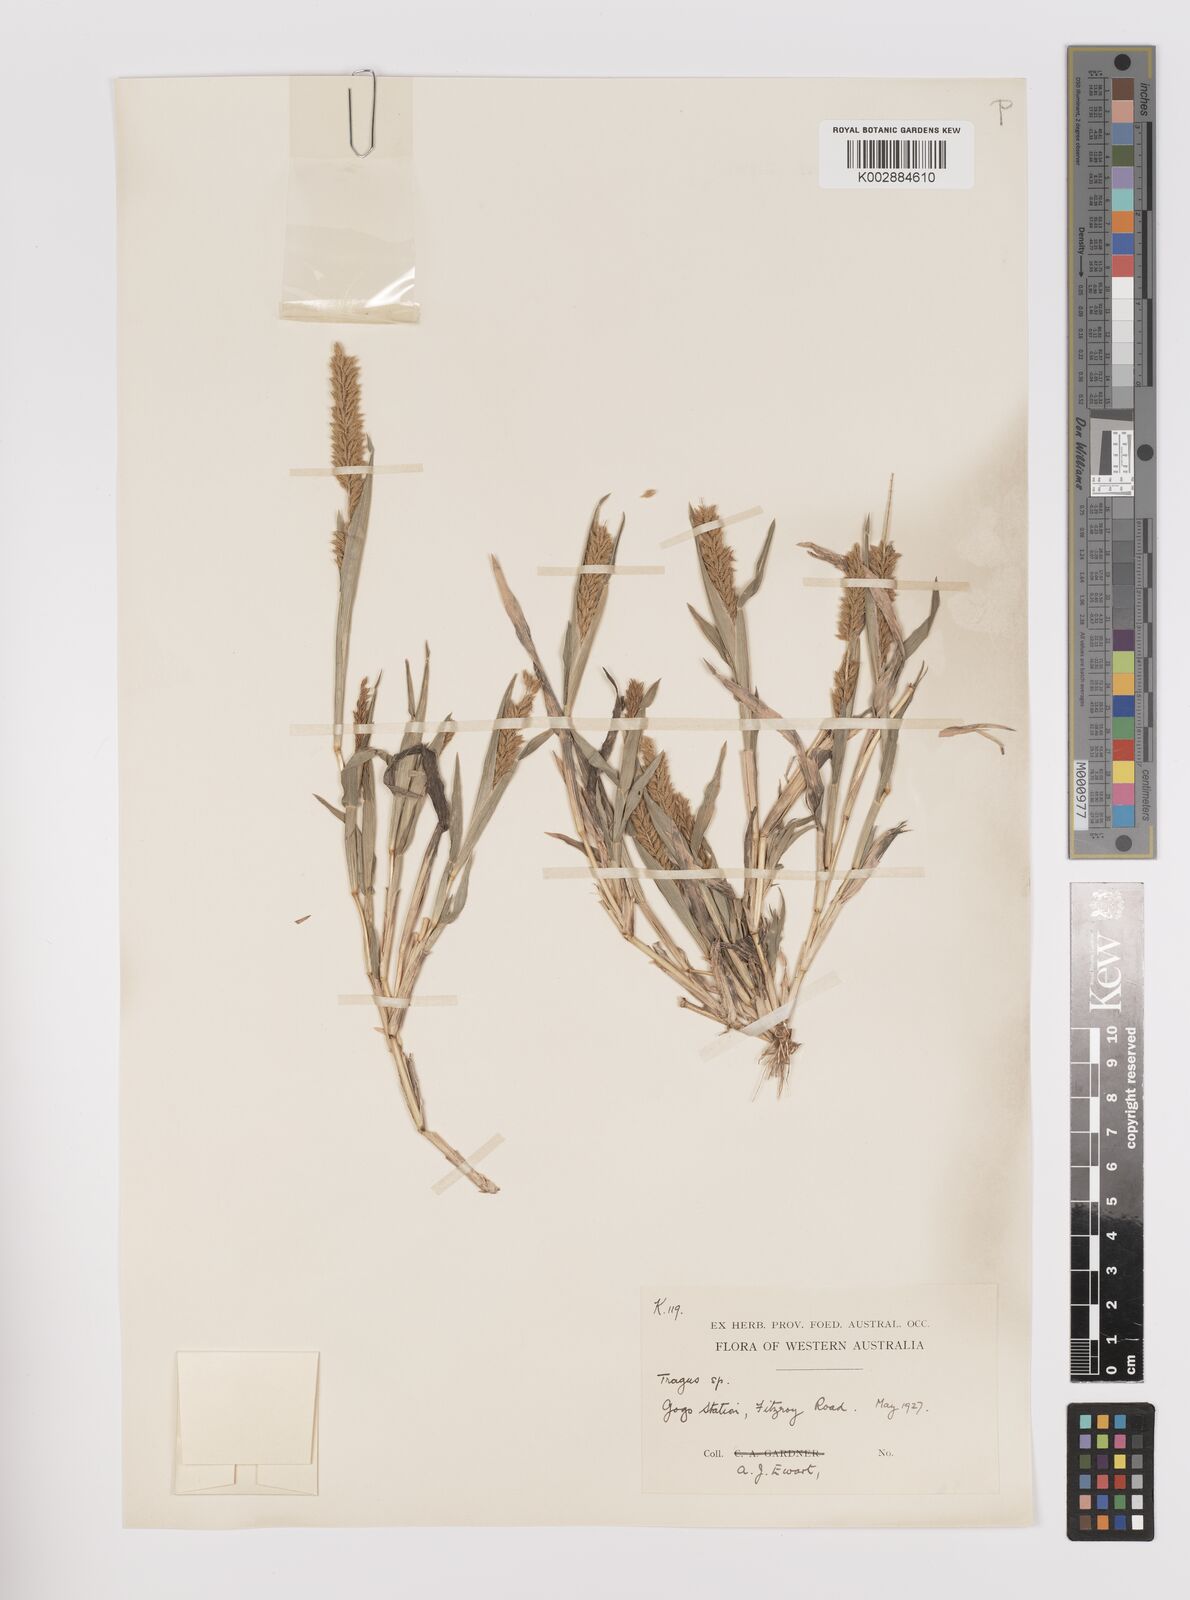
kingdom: Plantae
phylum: Tracheophyta
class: Liliopsida
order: Poales
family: Poaceae
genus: Tragus
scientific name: Tragus australianus
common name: Australian bur-grass
